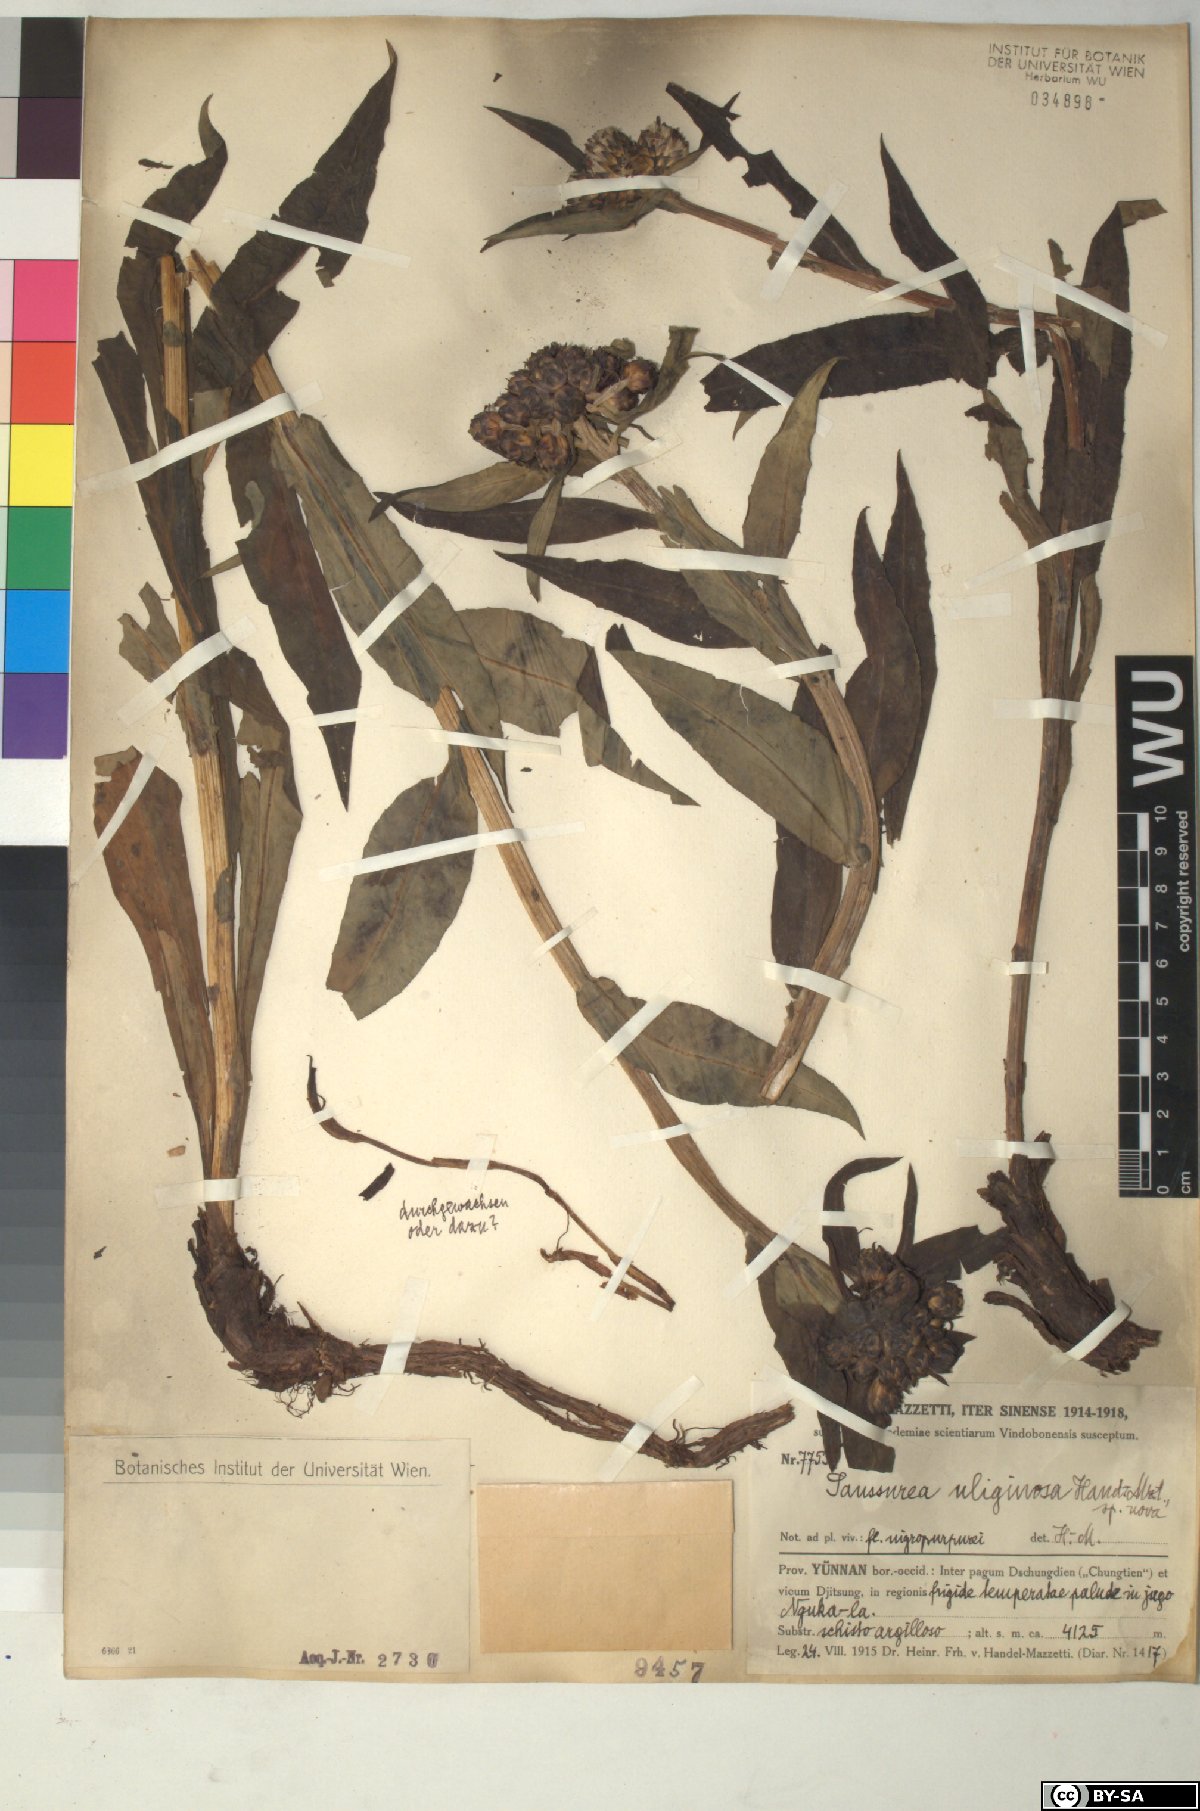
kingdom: Plantae
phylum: Tracheophyta
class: Magnoliopsida
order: Asterales
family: Asteraceae
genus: Saussurea
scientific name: Saussurea uliginosa
